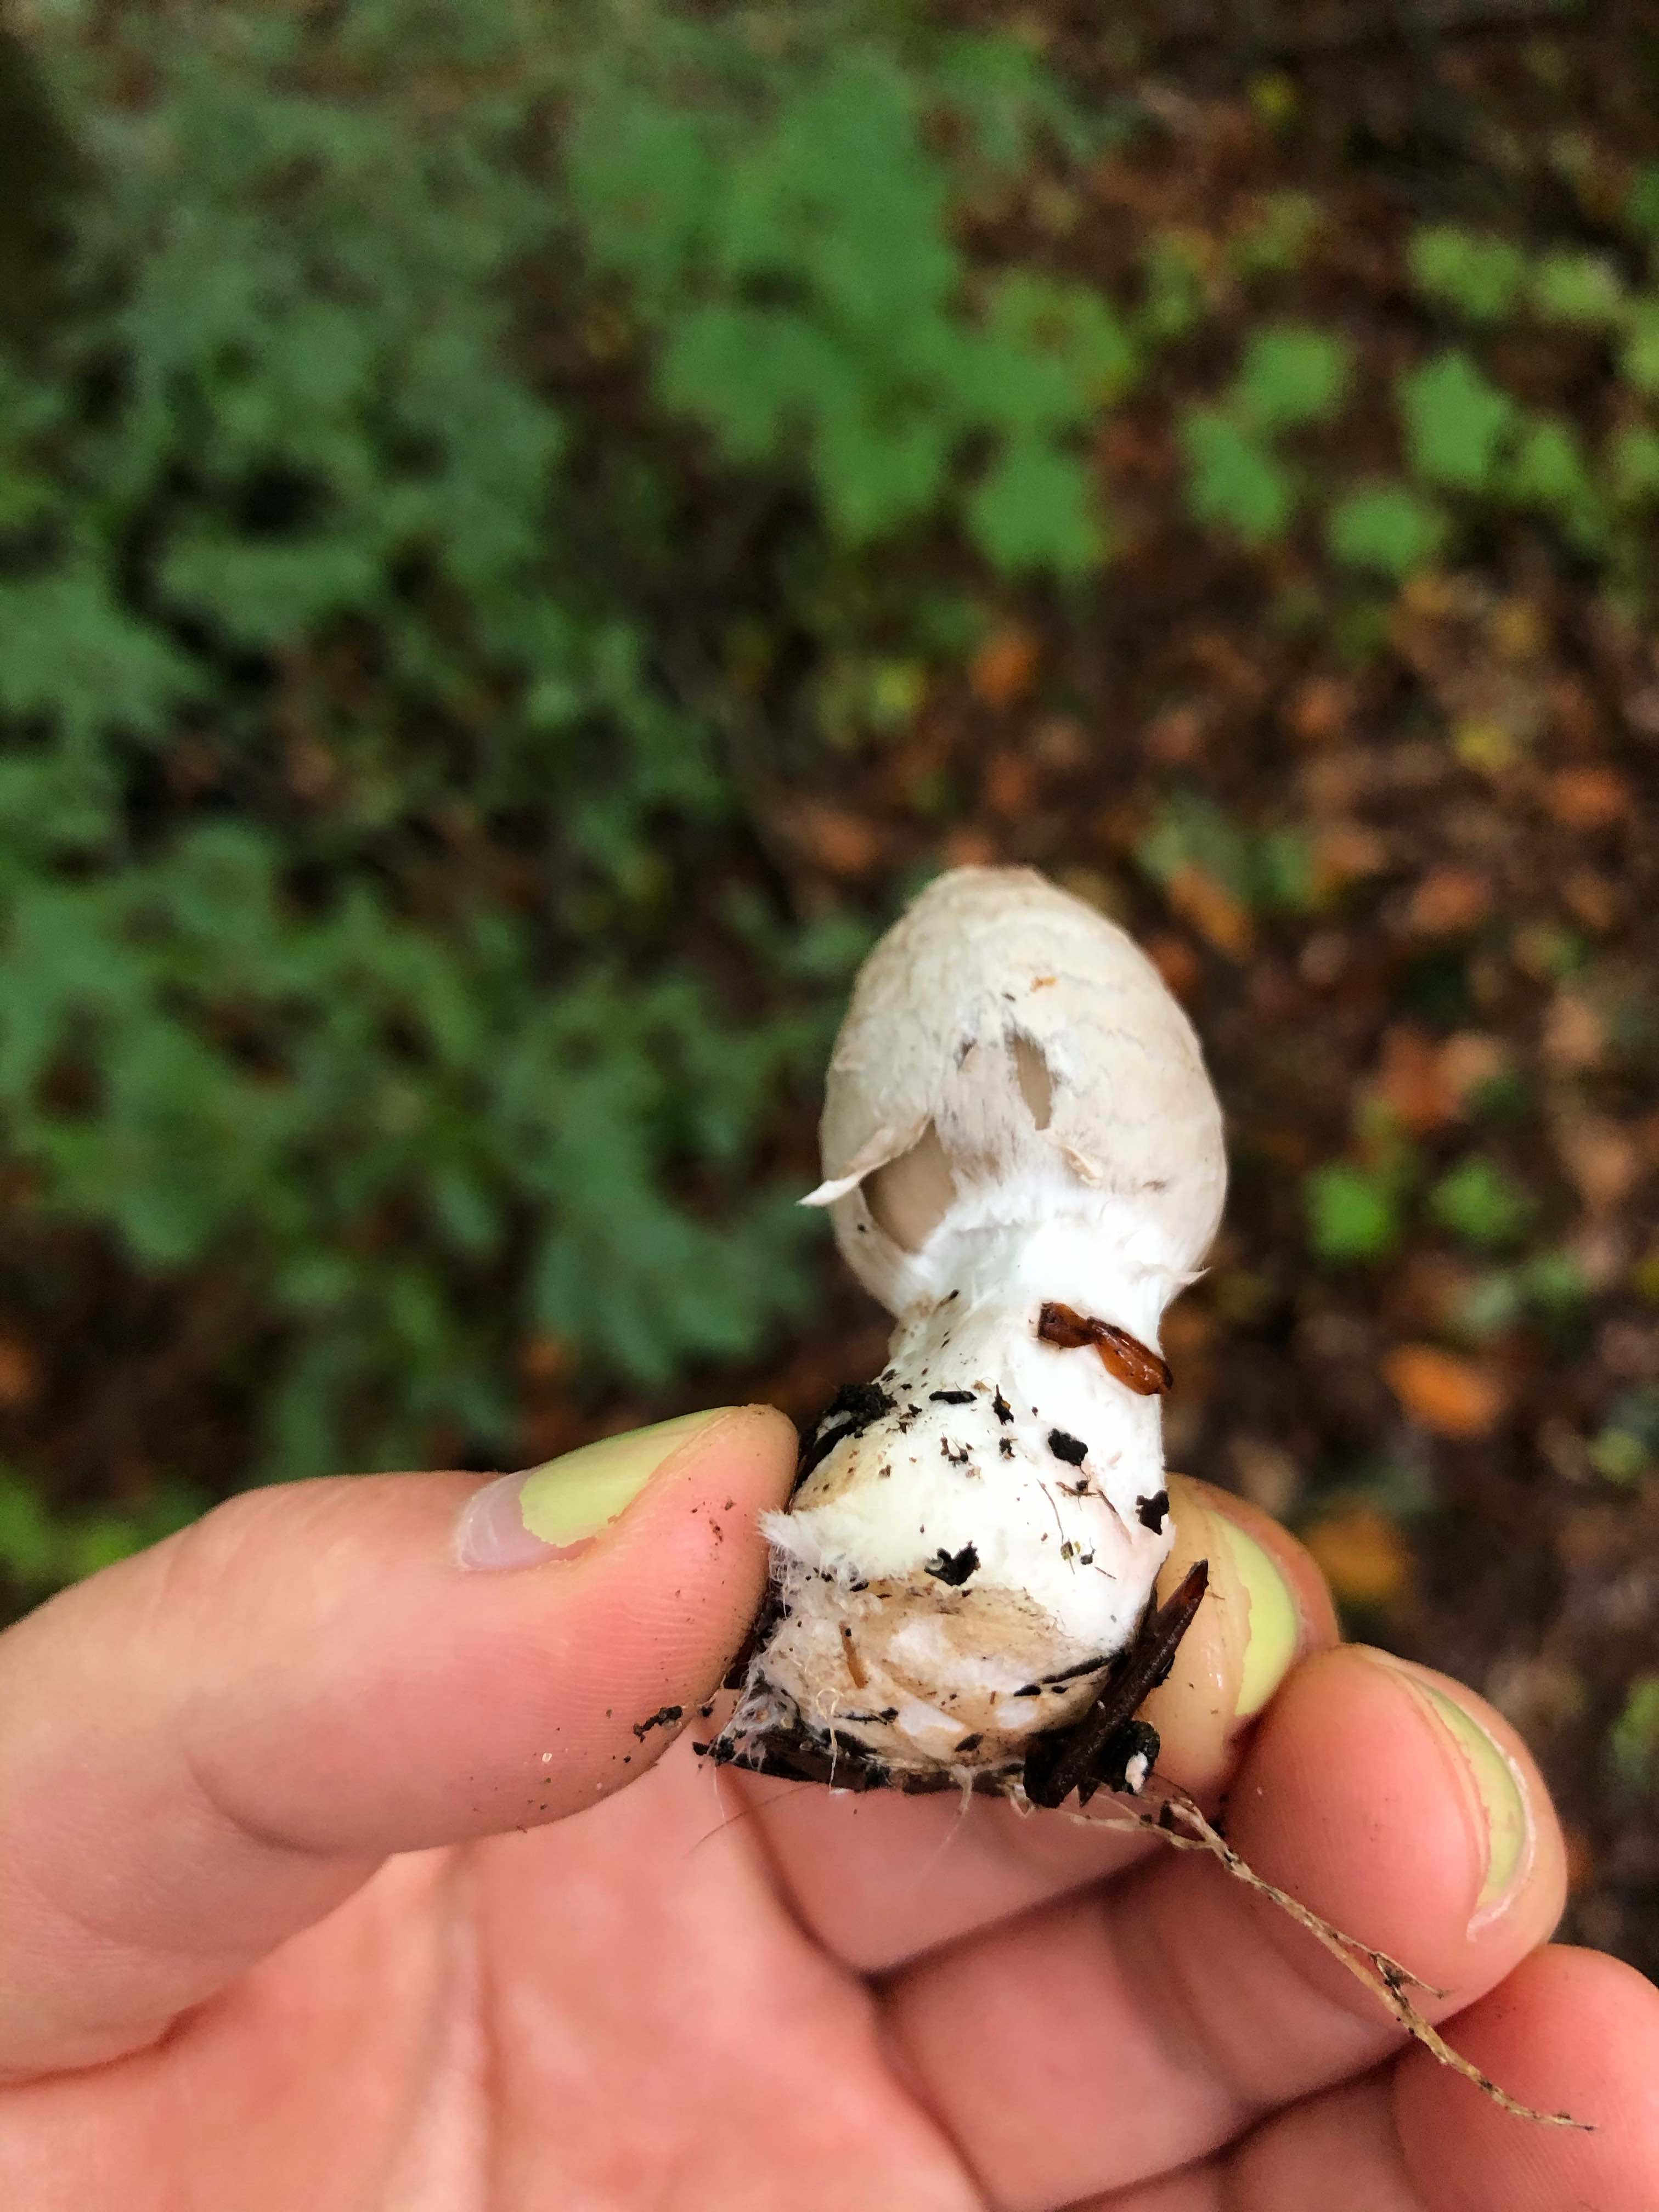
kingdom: Fungi
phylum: Basidiomycota
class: Agaricomycetes
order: Agaricales
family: Psathyrellaceae
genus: Coprinopsis
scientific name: Coprinopsis picacea
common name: skade-blækhat
